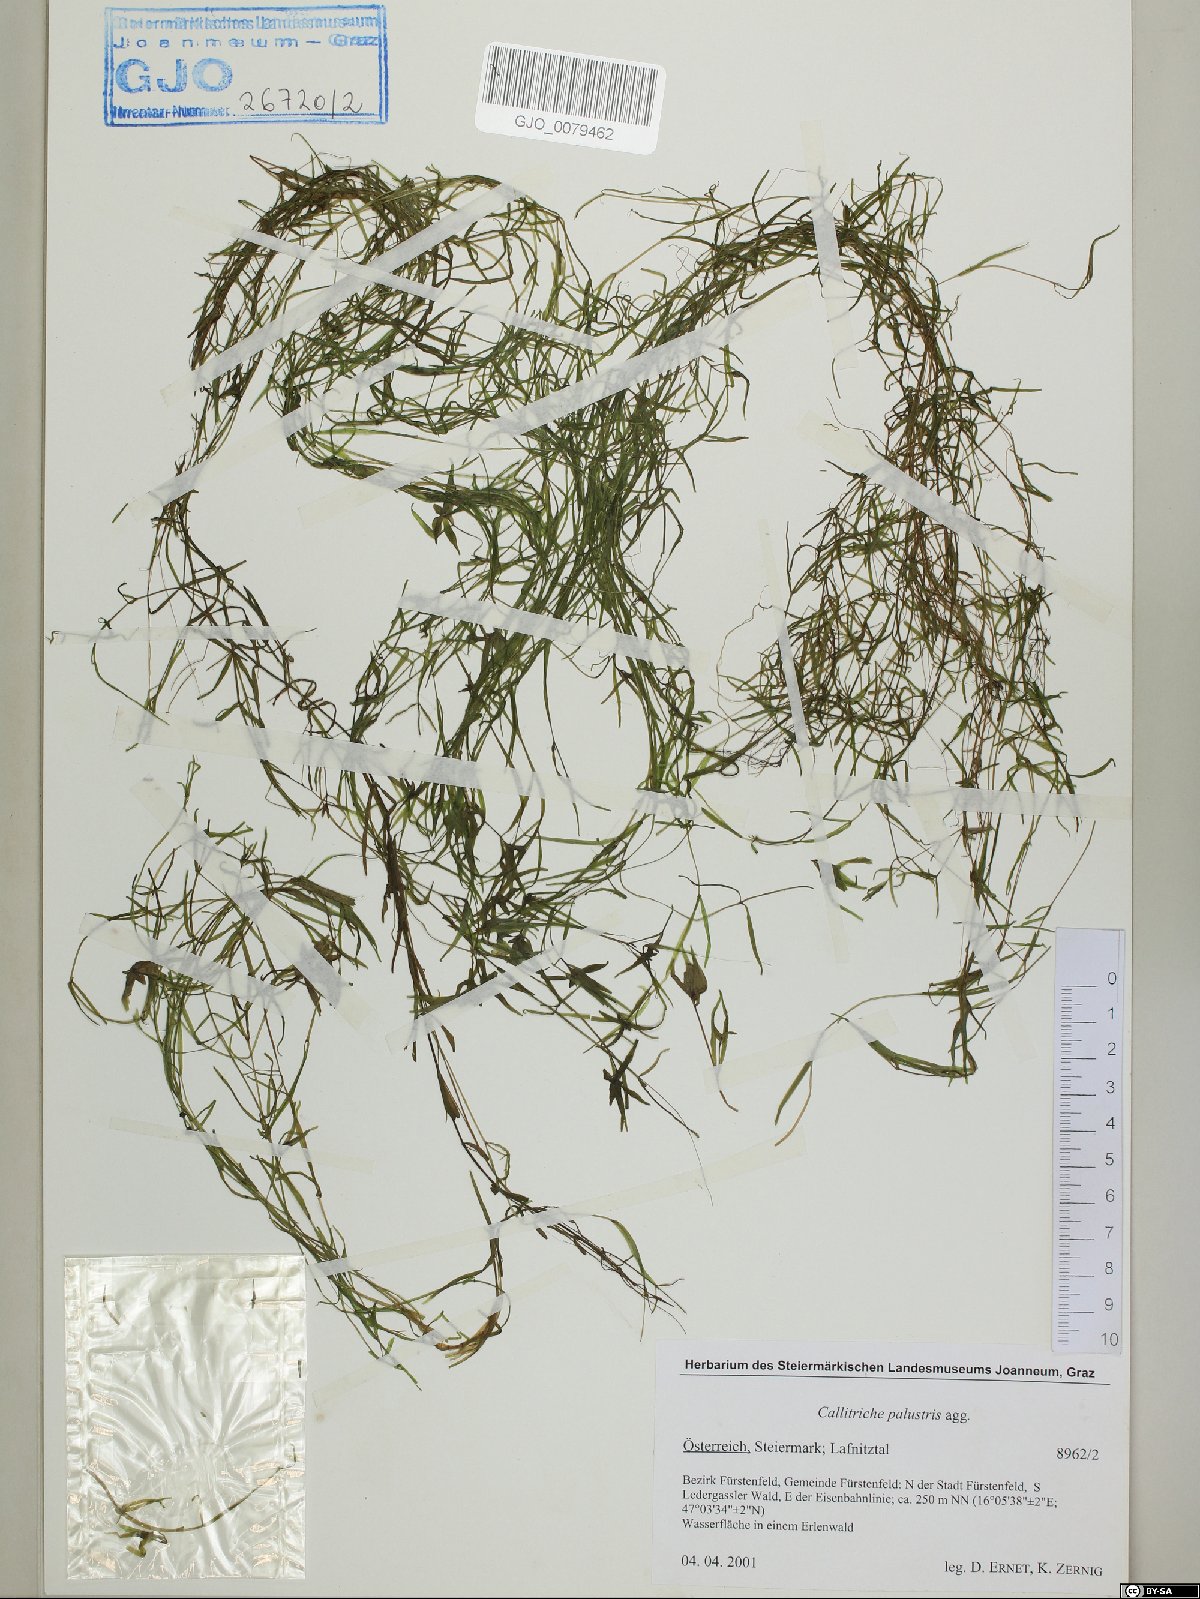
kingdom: Plantae
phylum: Tracheophyta
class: Magnoliopsida
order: Lamiales
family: Plantaginaceae
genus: Callitriche
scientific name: Callitriche palustris
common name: Spring water-starwort
